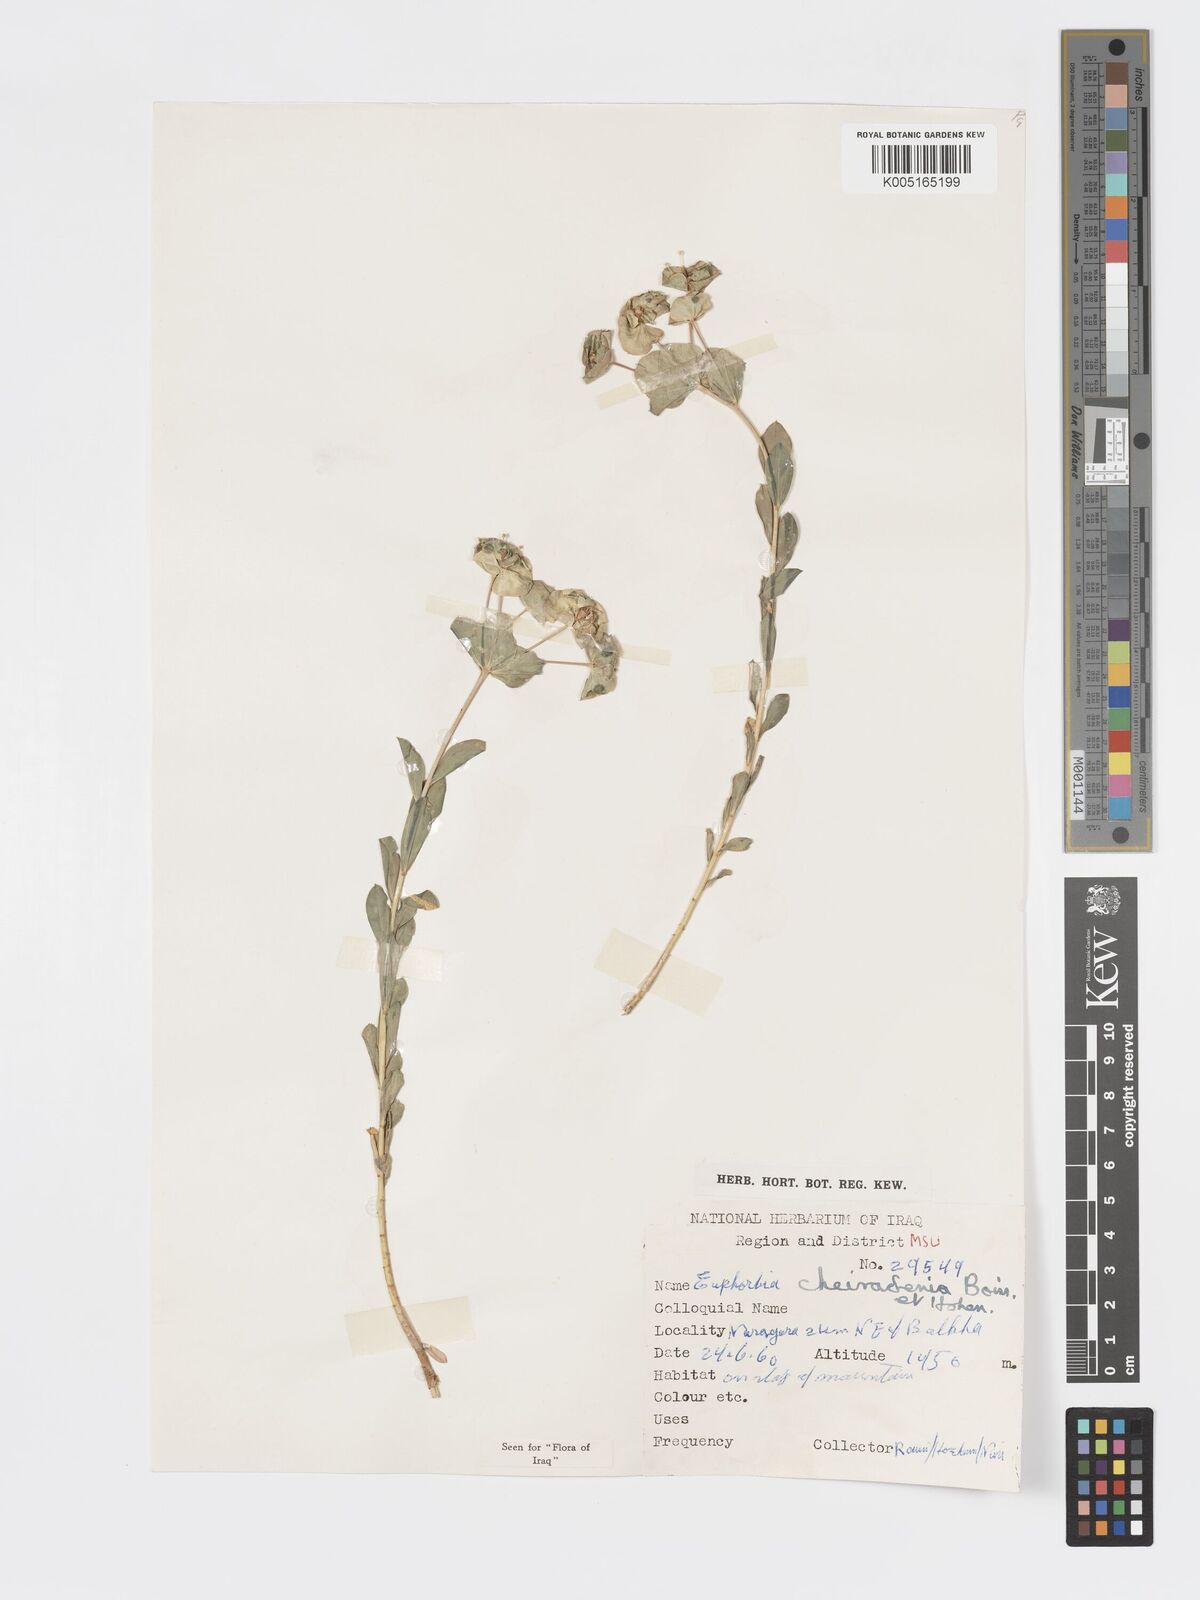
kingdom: Plantae
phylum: Tracheophyta
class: Magnoliopsida
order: Malpighiales
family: Euphorbiaceae
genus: Euphorbia
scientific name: Euphorbia cheiradenia
